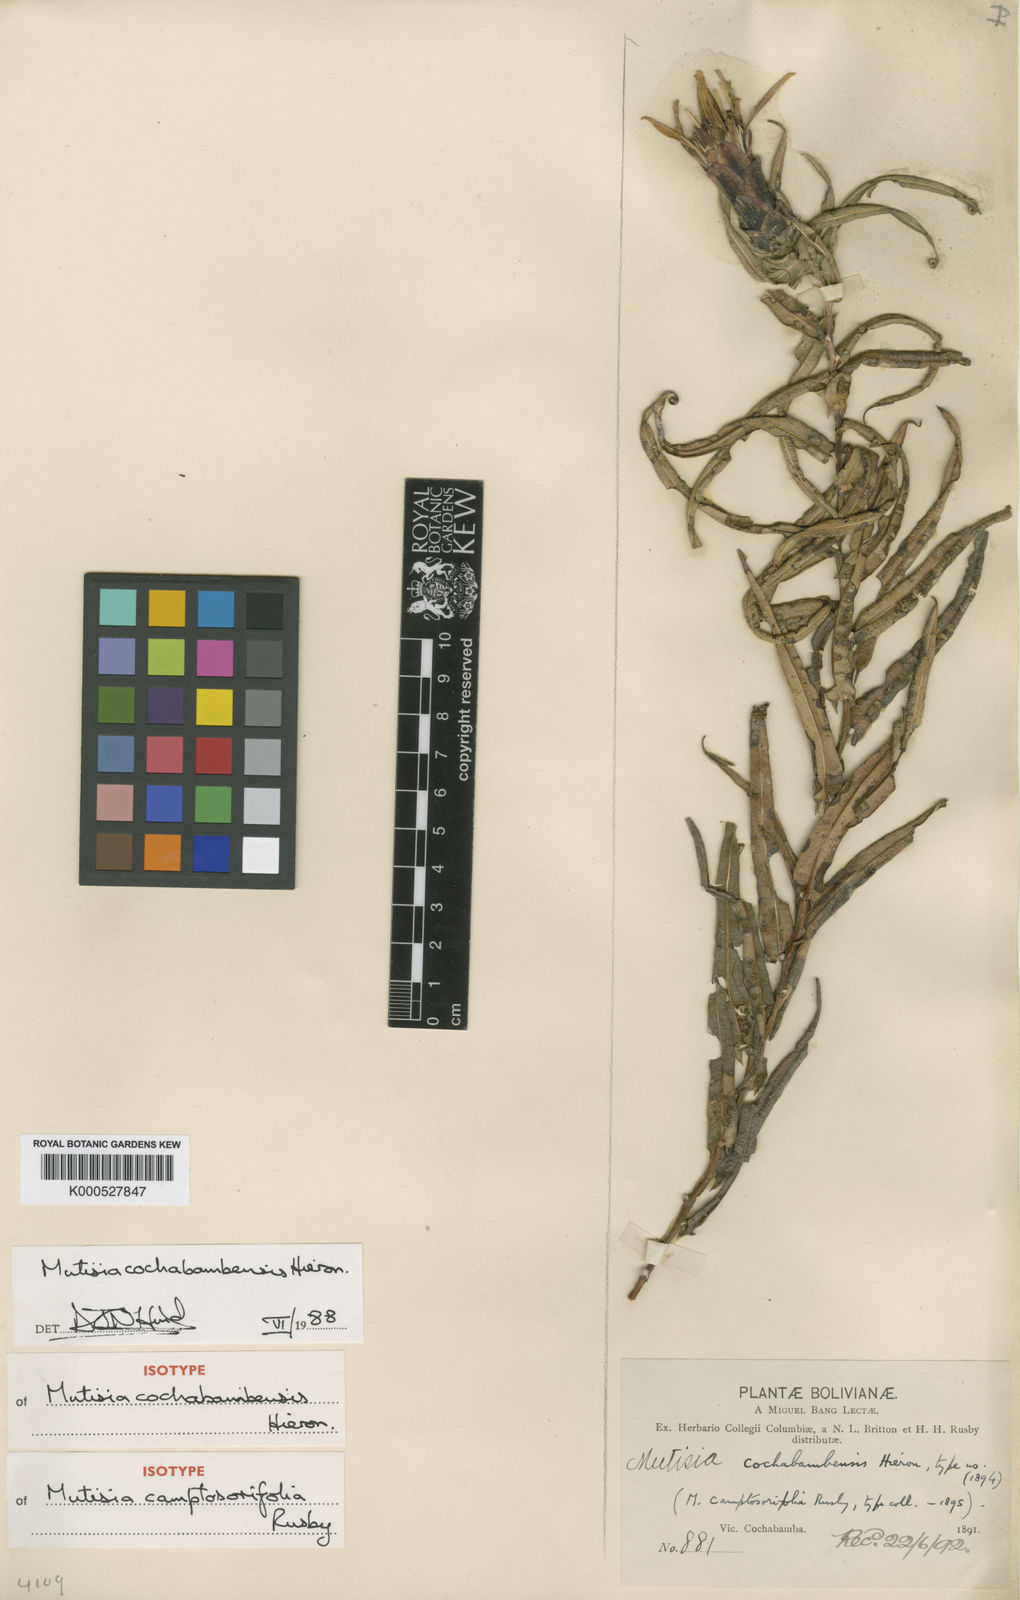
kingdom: Plantae
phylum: Tracheophyta
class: Magnoliopsida
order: Asterales
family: Asteraceae
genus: Mutisia
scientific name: Mutisia cochabambensis
